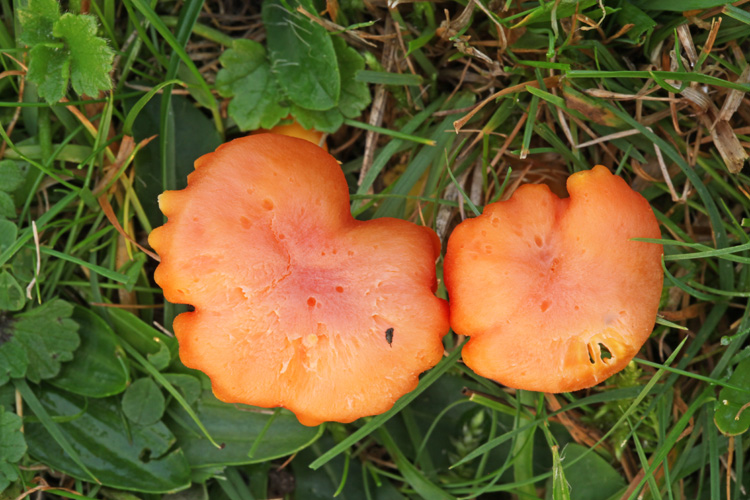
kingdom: Fungi
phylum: Basidiomycota
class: Agaricomycetes
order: Agaricales
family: Hygrophoraceae
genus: Hygrocybe
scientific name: Hygrocybe miniata
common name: mønje-vokshat
